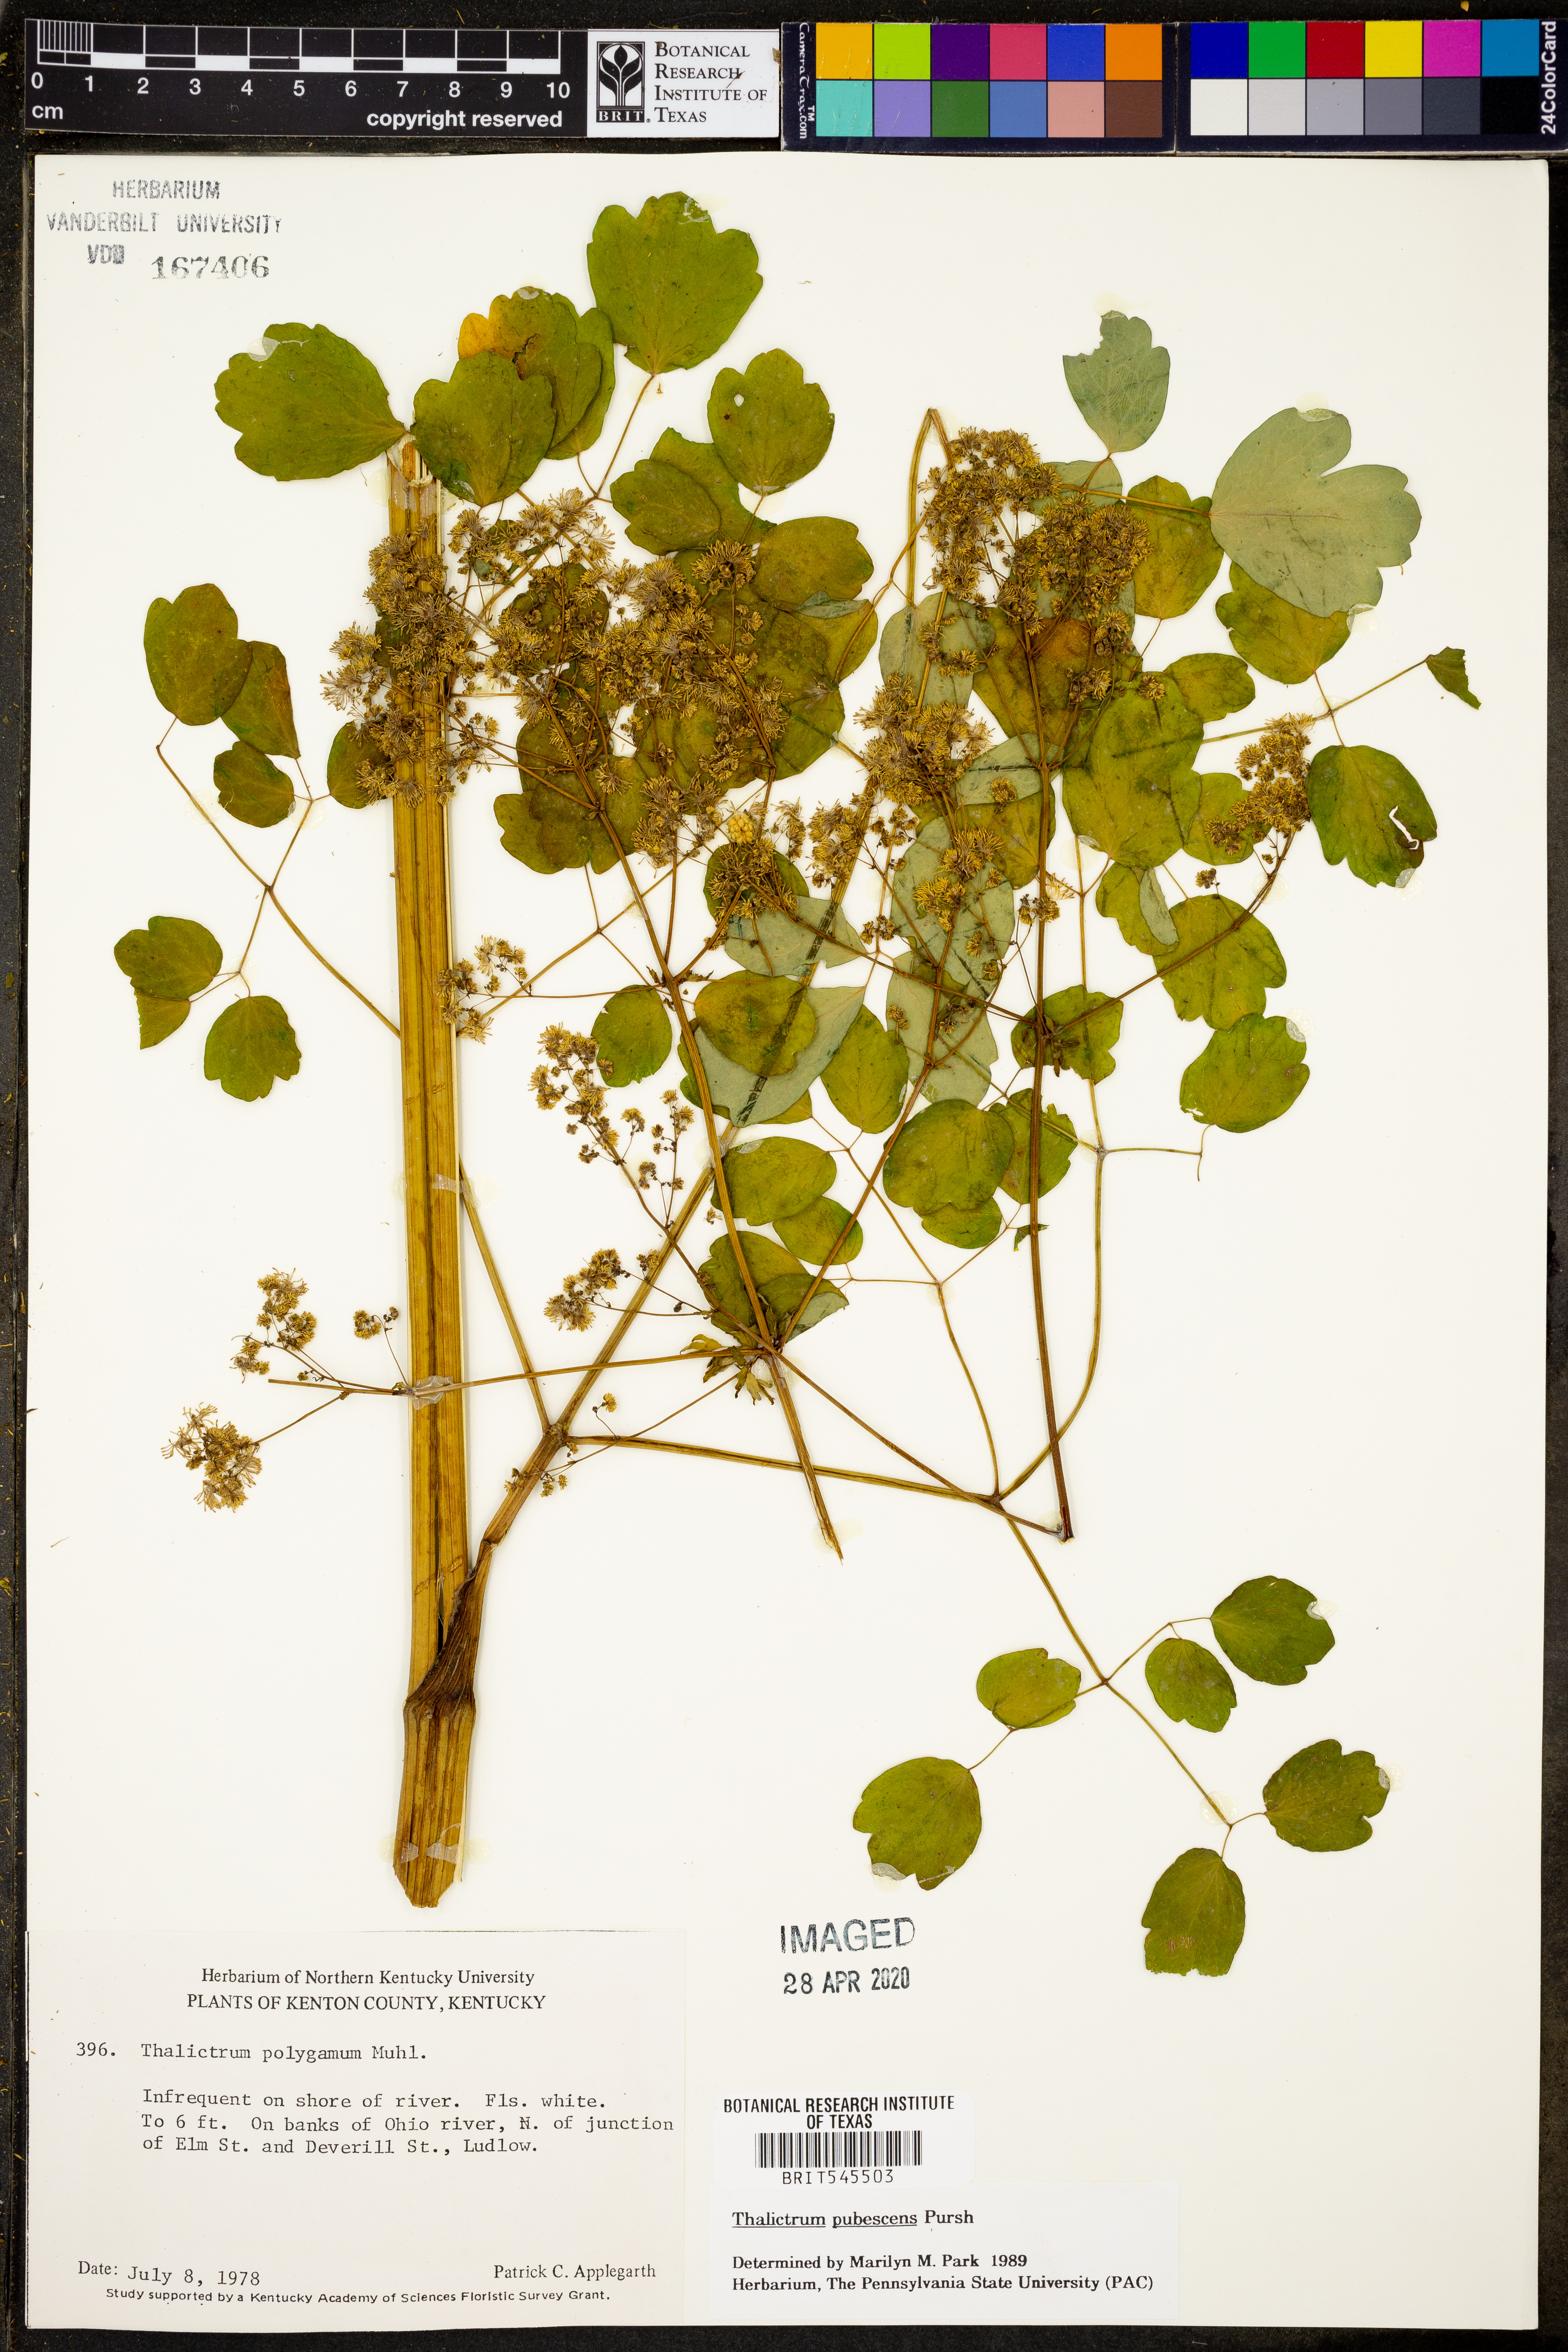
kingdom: Plantae
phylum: Tracheophyta
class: Magnoliopsida
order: Ranunculales
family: Ranunculaceae
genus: Thalictrum
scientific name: Thalictrum pubescens
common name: King-of-the-meadow
